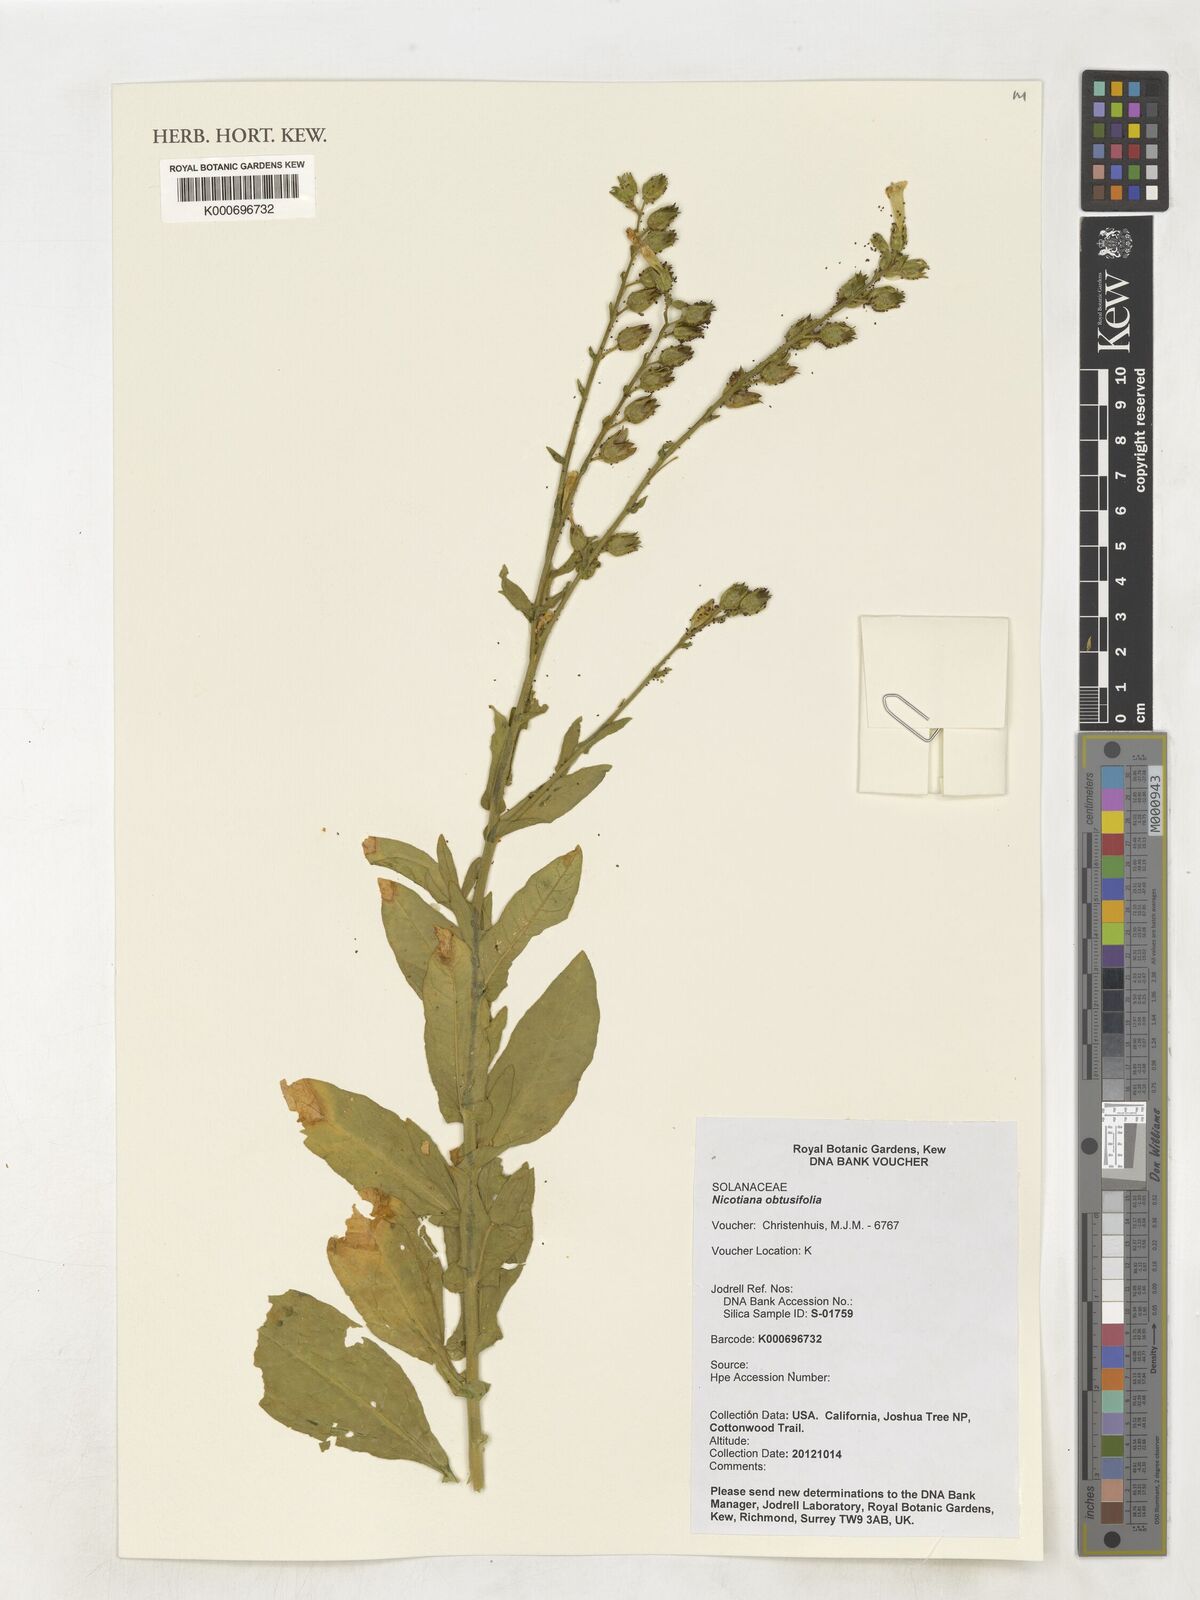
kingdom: Plantae
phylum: Tracheophyta
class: Magnoliopsida
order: Solanales
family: Solanaceae
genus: Nicotiana
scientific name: Nicotiana obtusifolia
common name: Desert tobacco
